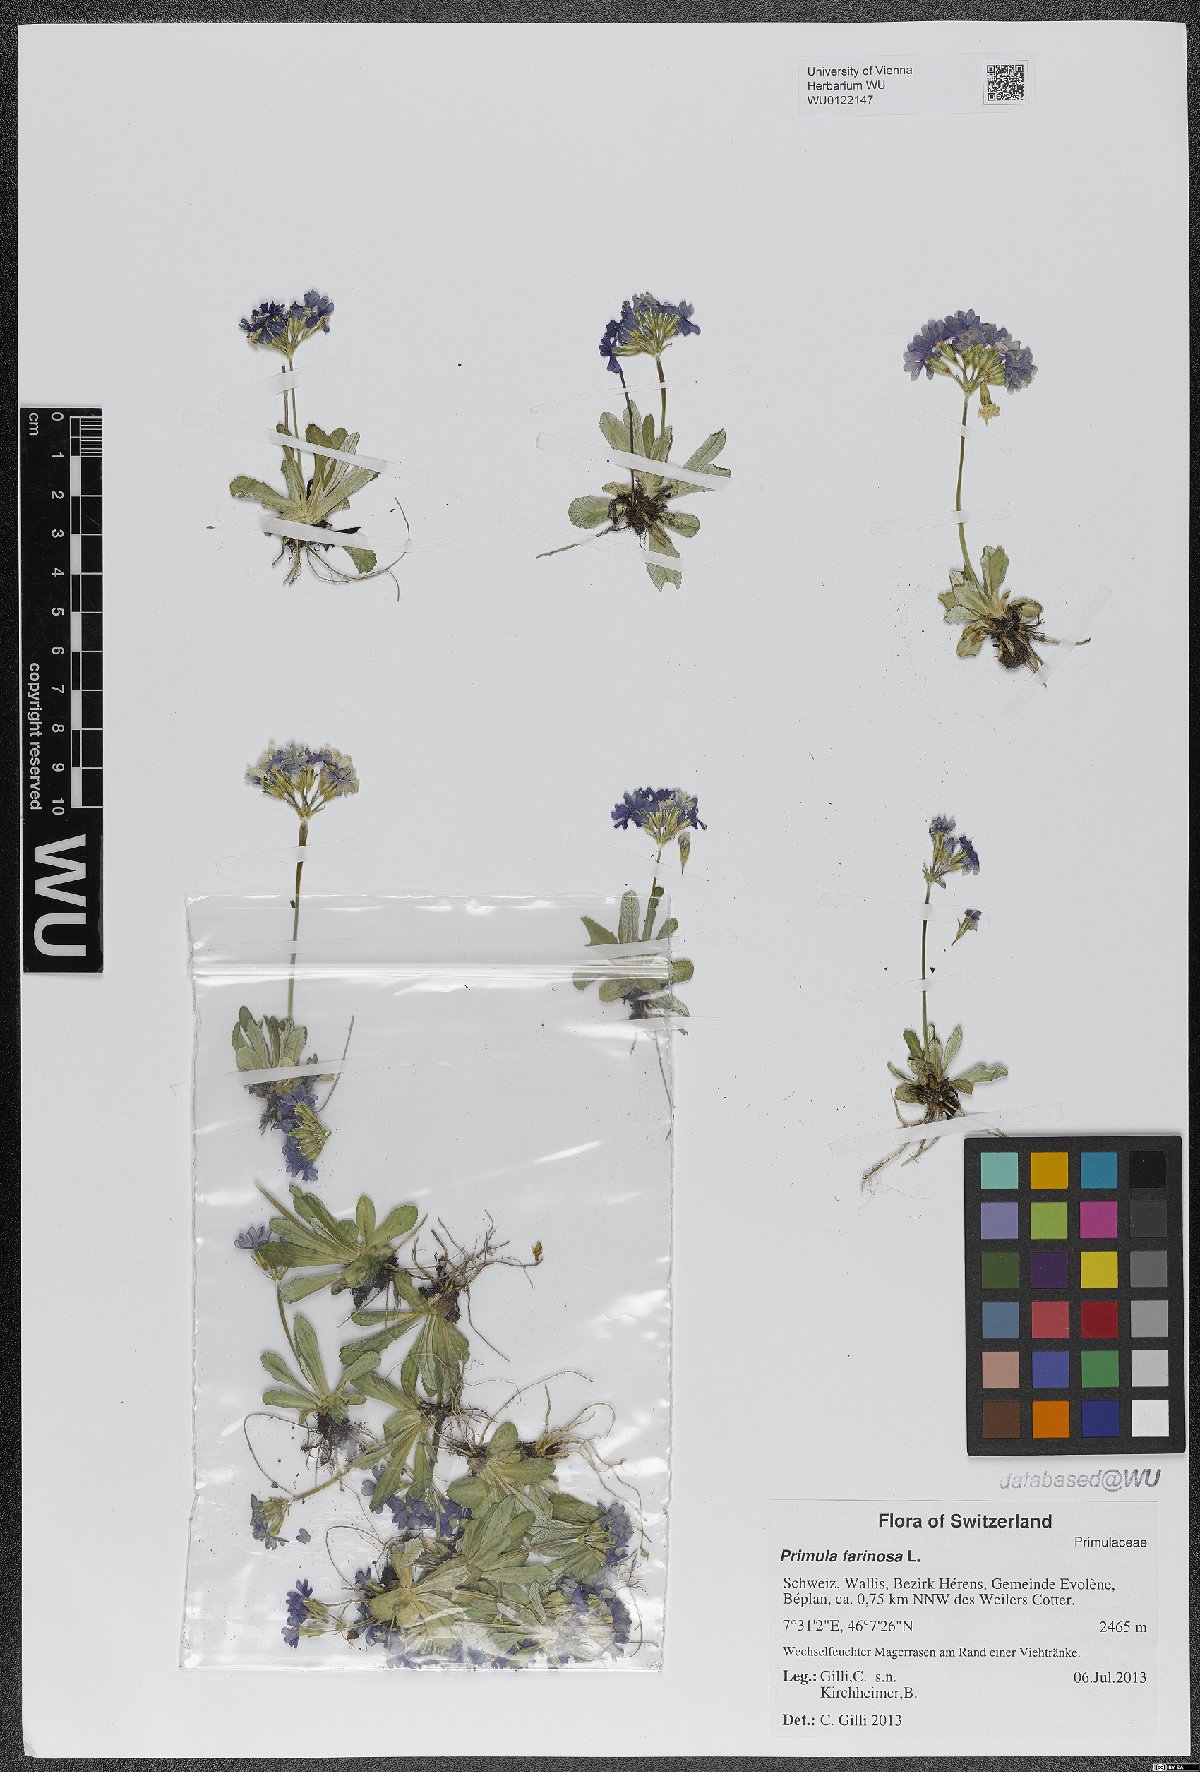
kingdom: Plantae
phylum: Tracheophyta
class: Magnoliopsida
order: Ericales
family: Primulaceae
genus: Primula
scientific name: Primula farinosa
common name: Bird's-eye primrose
